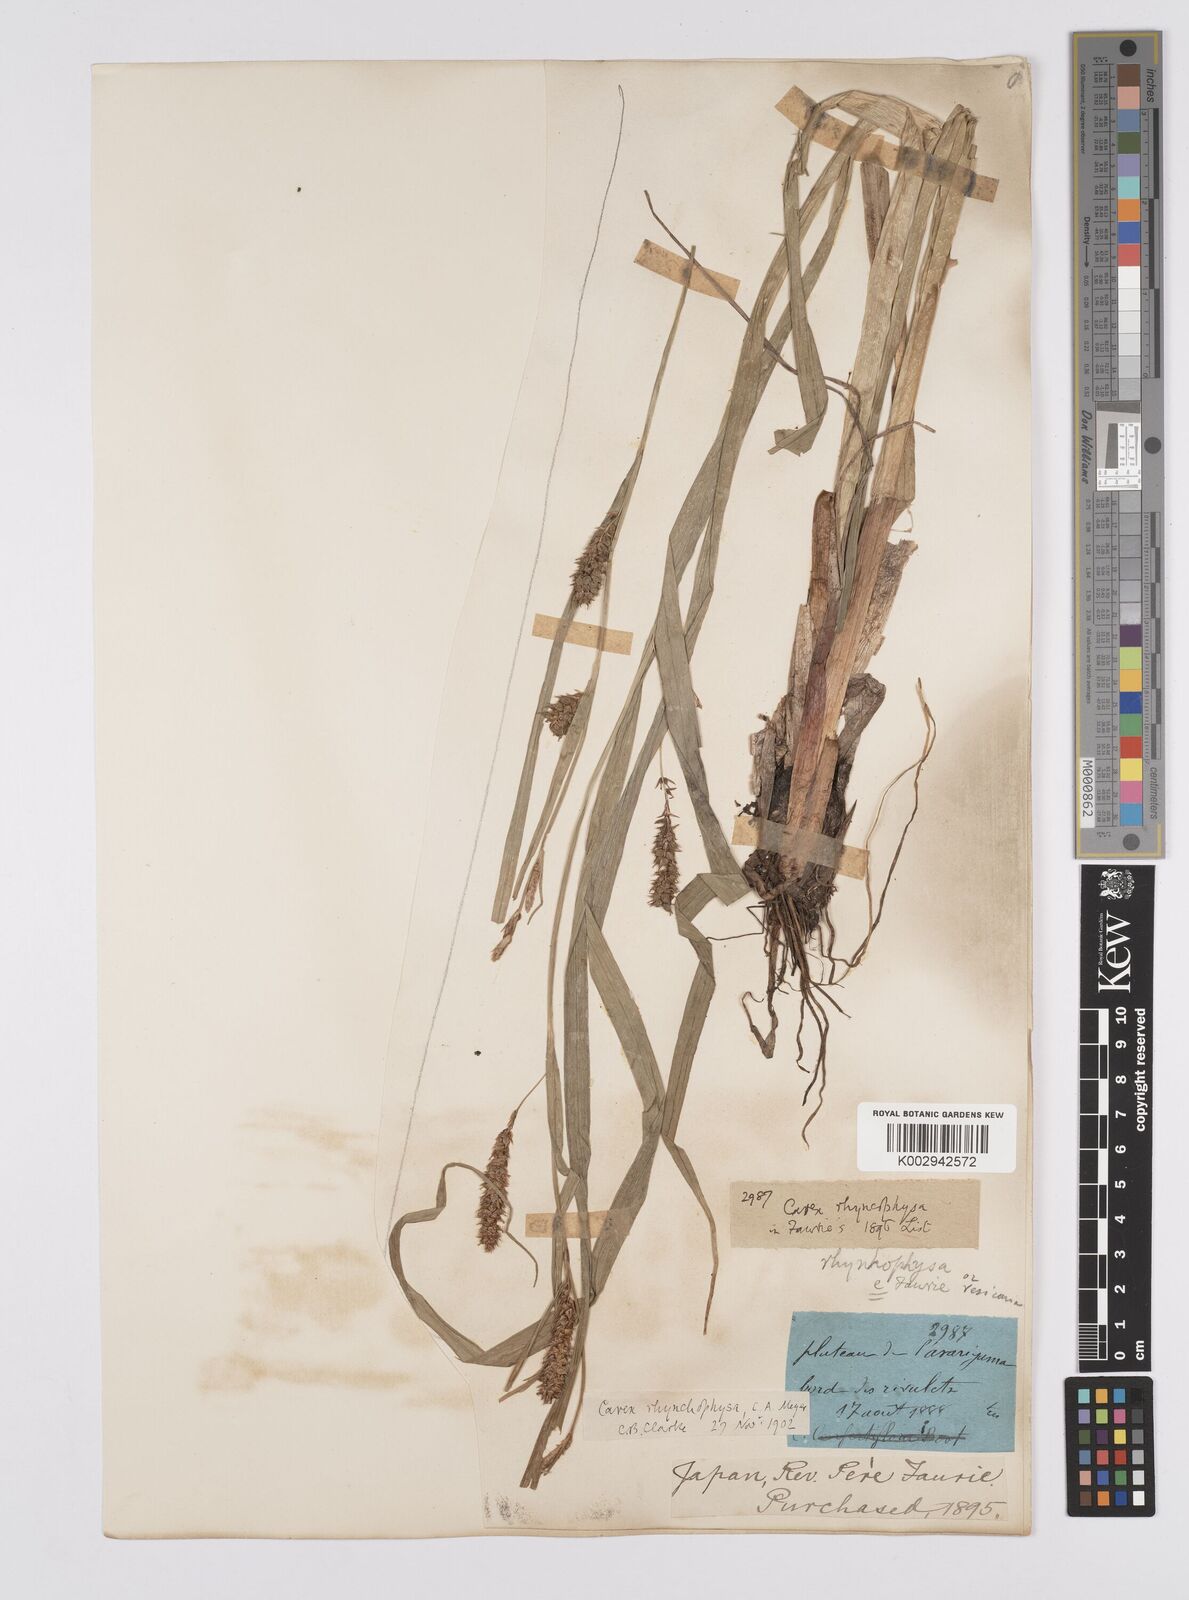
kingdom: Plantae
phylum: Tracheophyta
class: Liliopsida
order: Poales
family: Cyperaceae
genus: Carex
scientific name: Carex utriculata
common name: Beaked sedge
